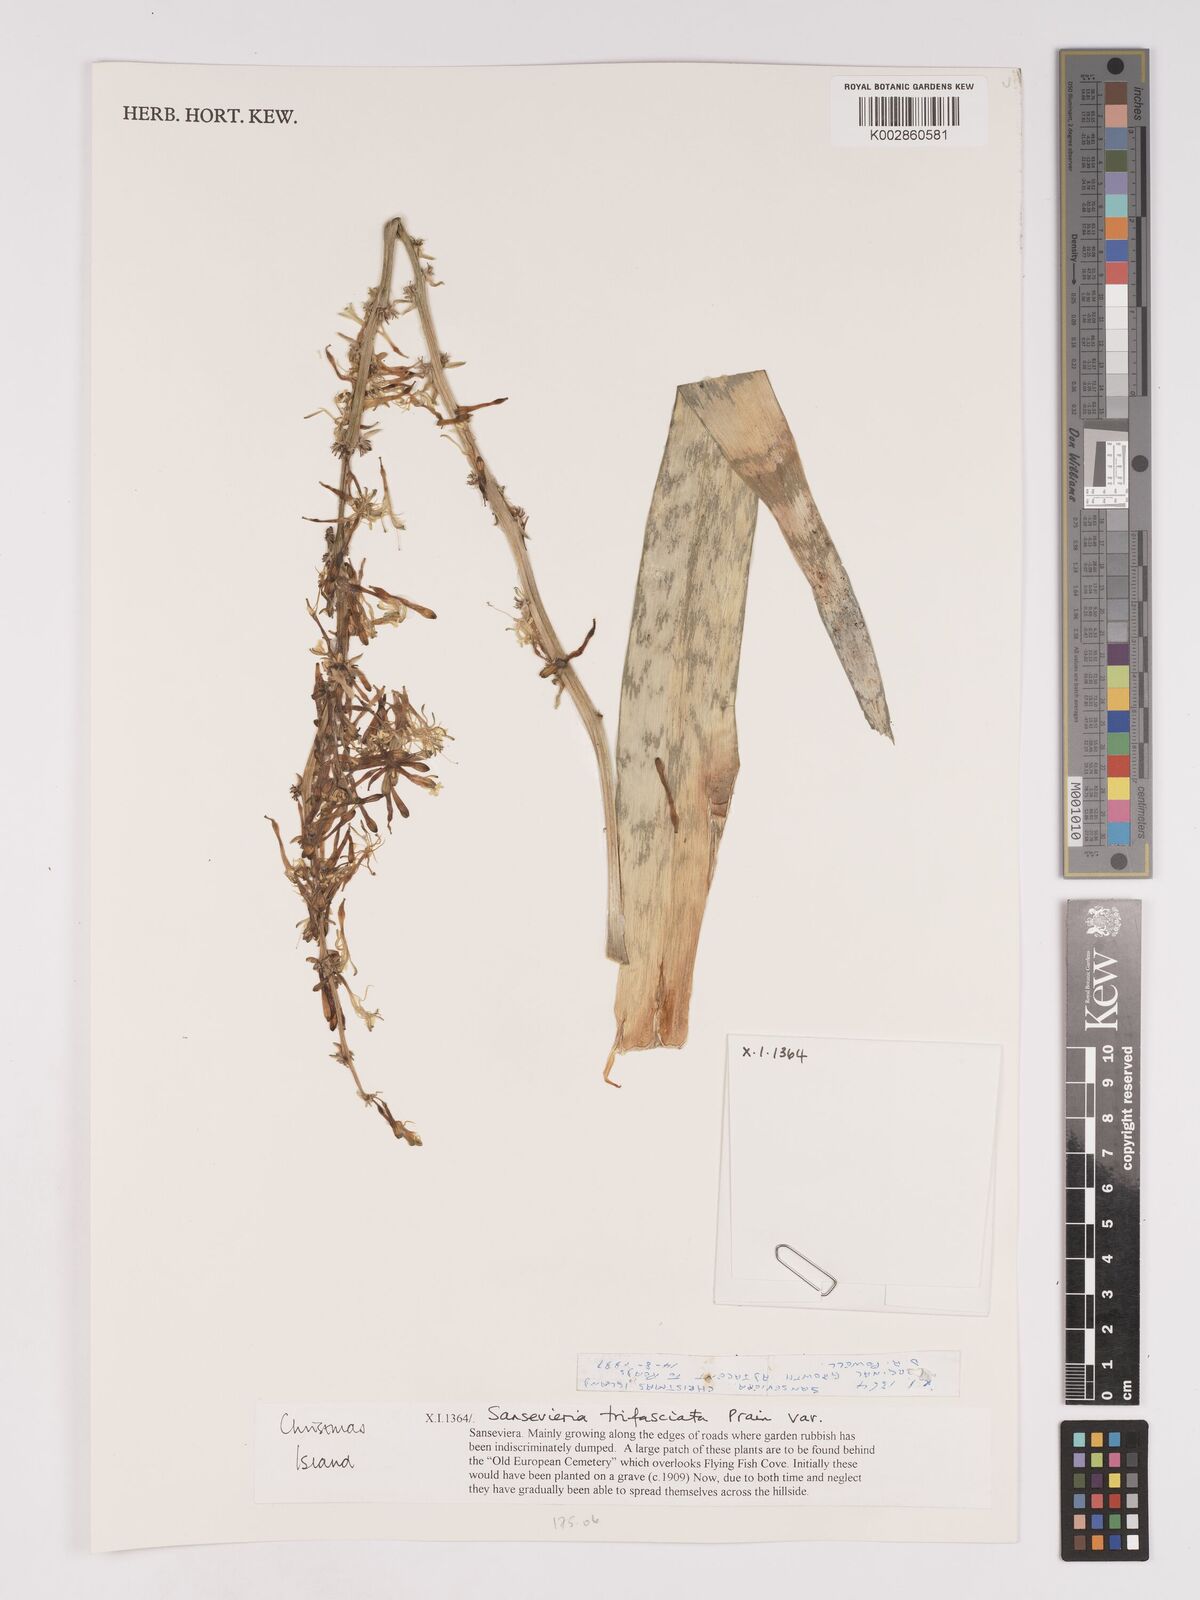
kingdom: Plantae
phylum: Tracheophyta
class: Liliopsida
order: Asparagales
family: Asparagaceae
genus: Dracaena
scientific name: Dracaena terniflora
